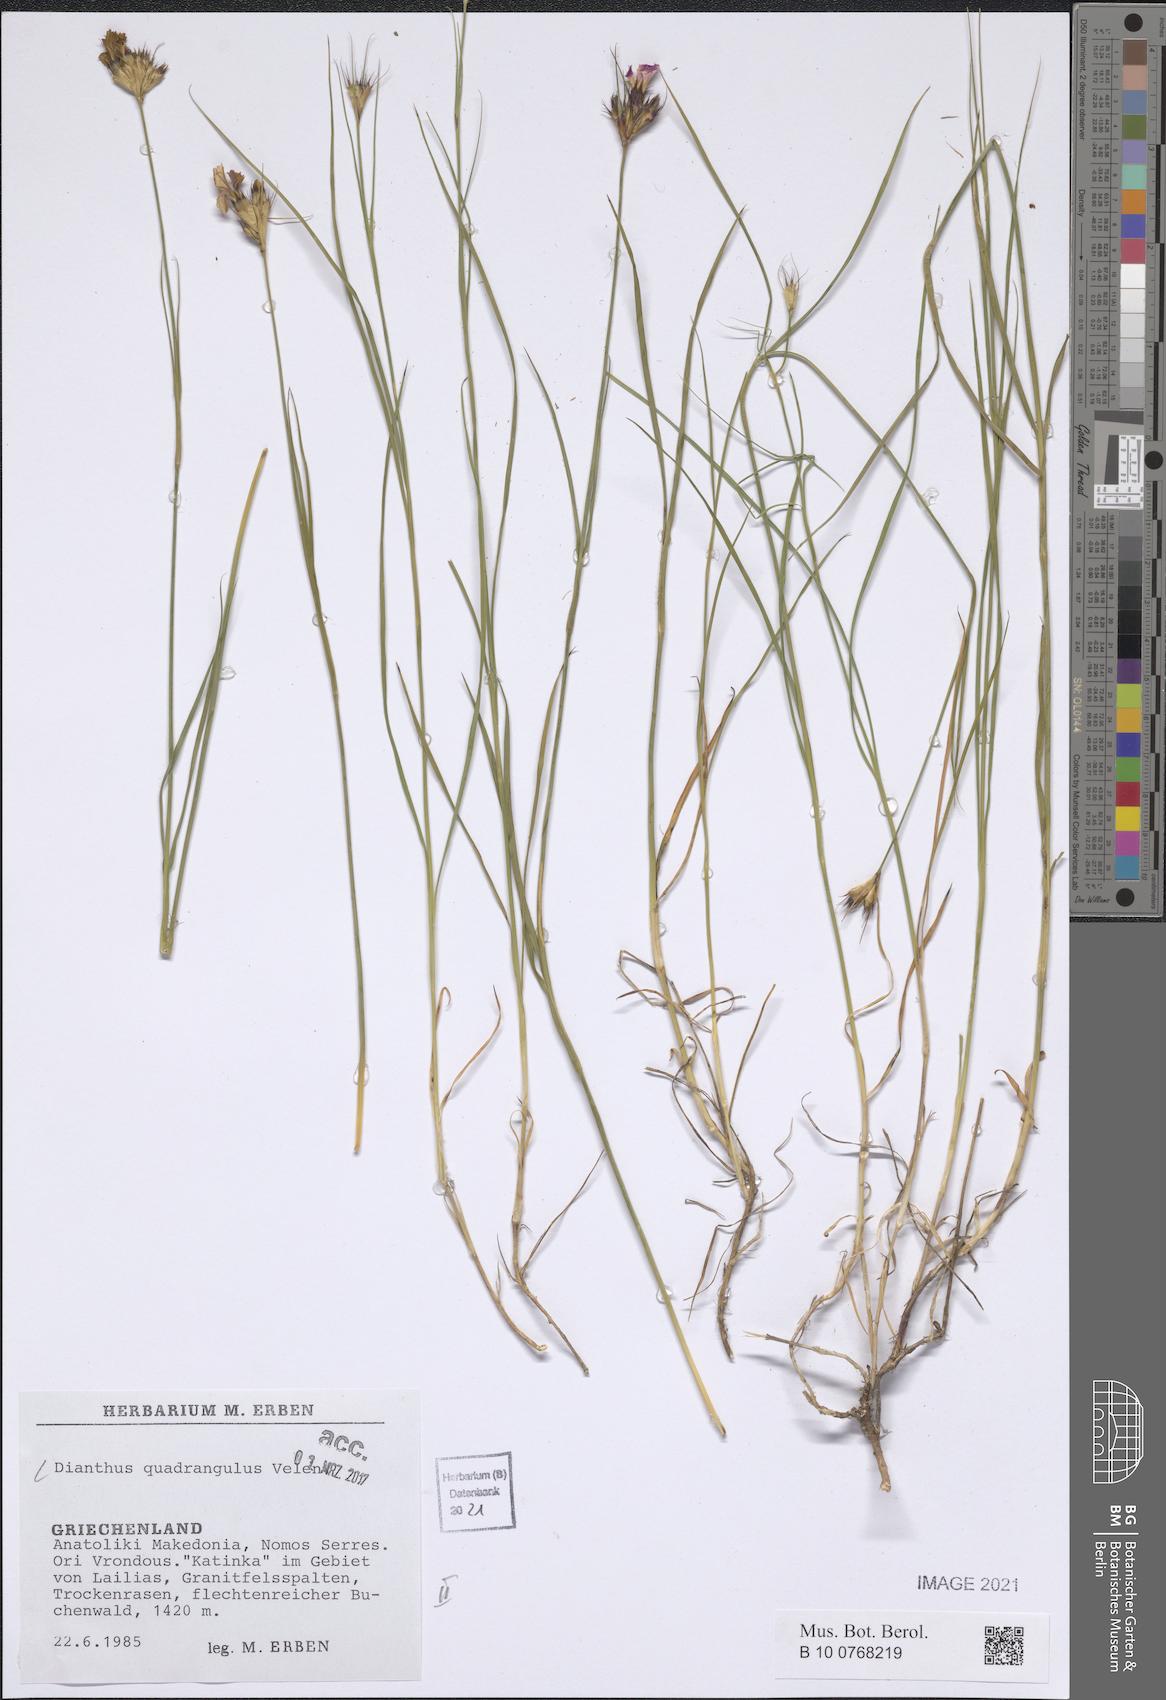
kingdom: Plantae
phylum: Tracheophyta
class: Magnoliopsida
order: Caryophyllales
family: Caryophyllaceae
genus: Dianthus
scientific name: Dianthus cruentus
